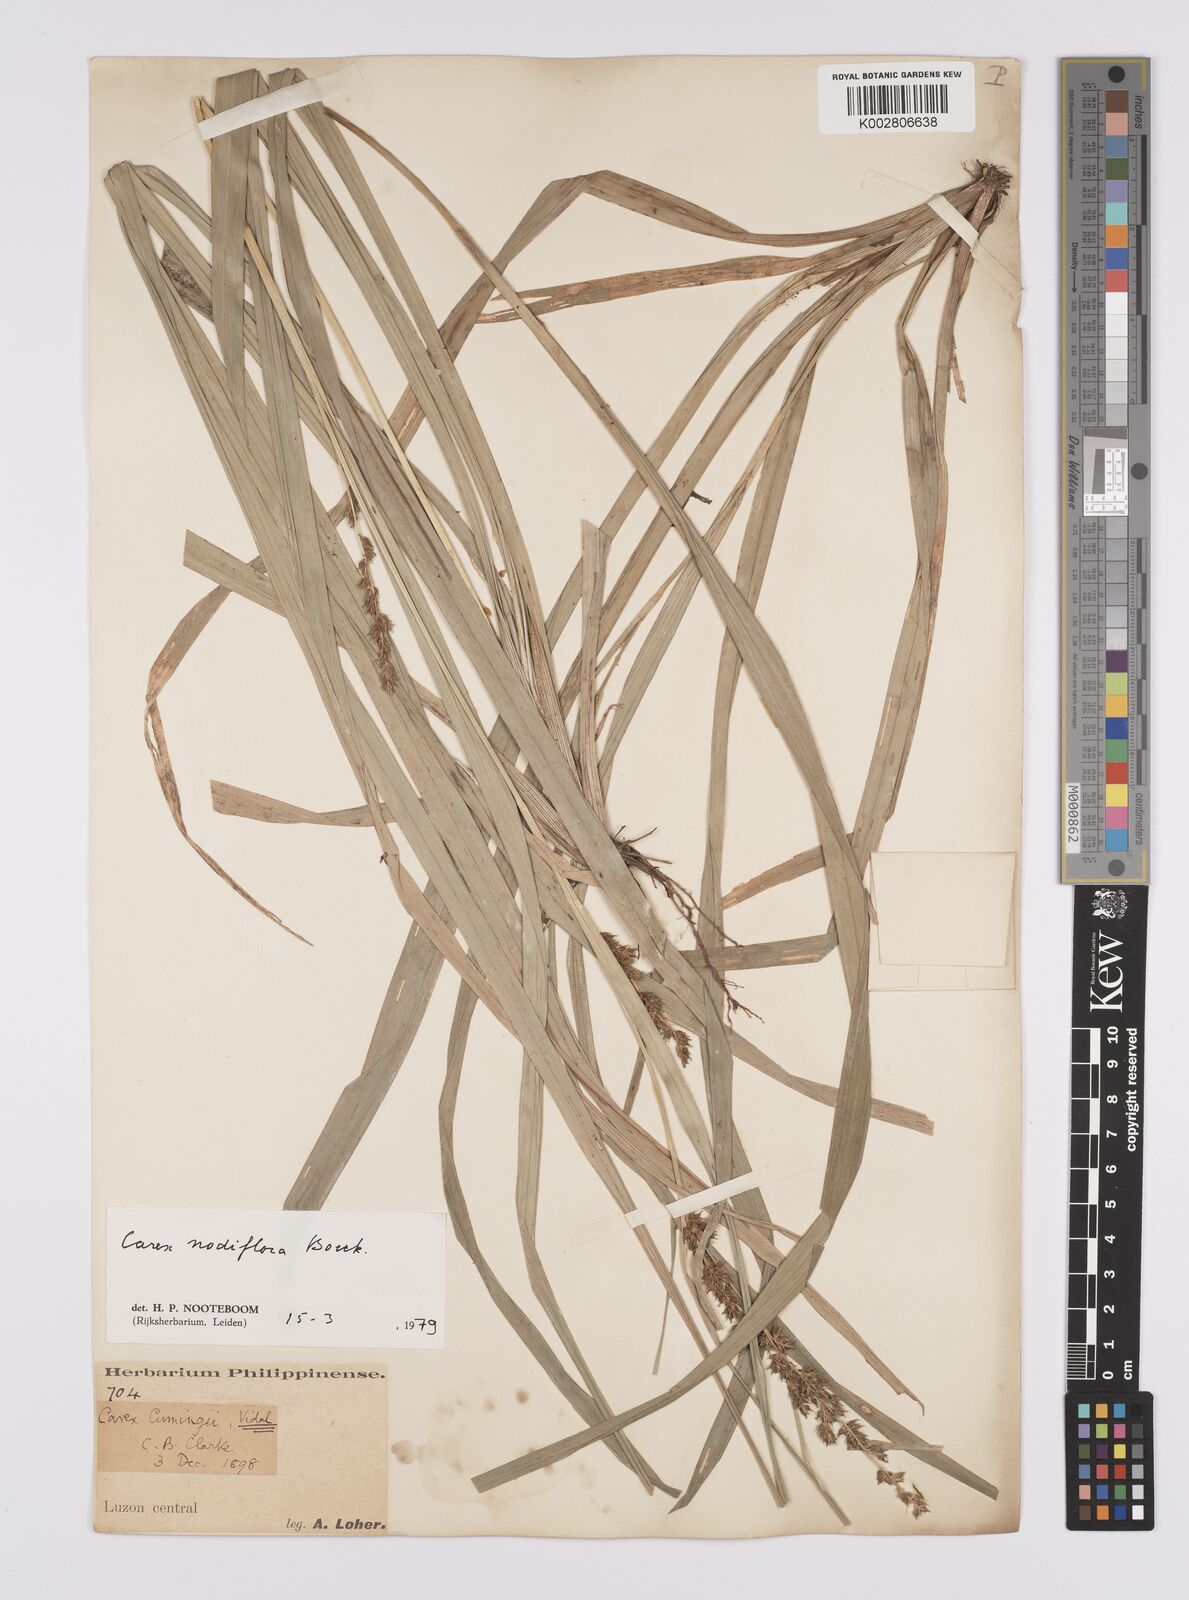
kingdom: Plantae
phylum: Tracheophyta
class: Liliopsida
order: Poales
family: Cyperaceae
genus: Carex
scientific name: Carex nodiflora
